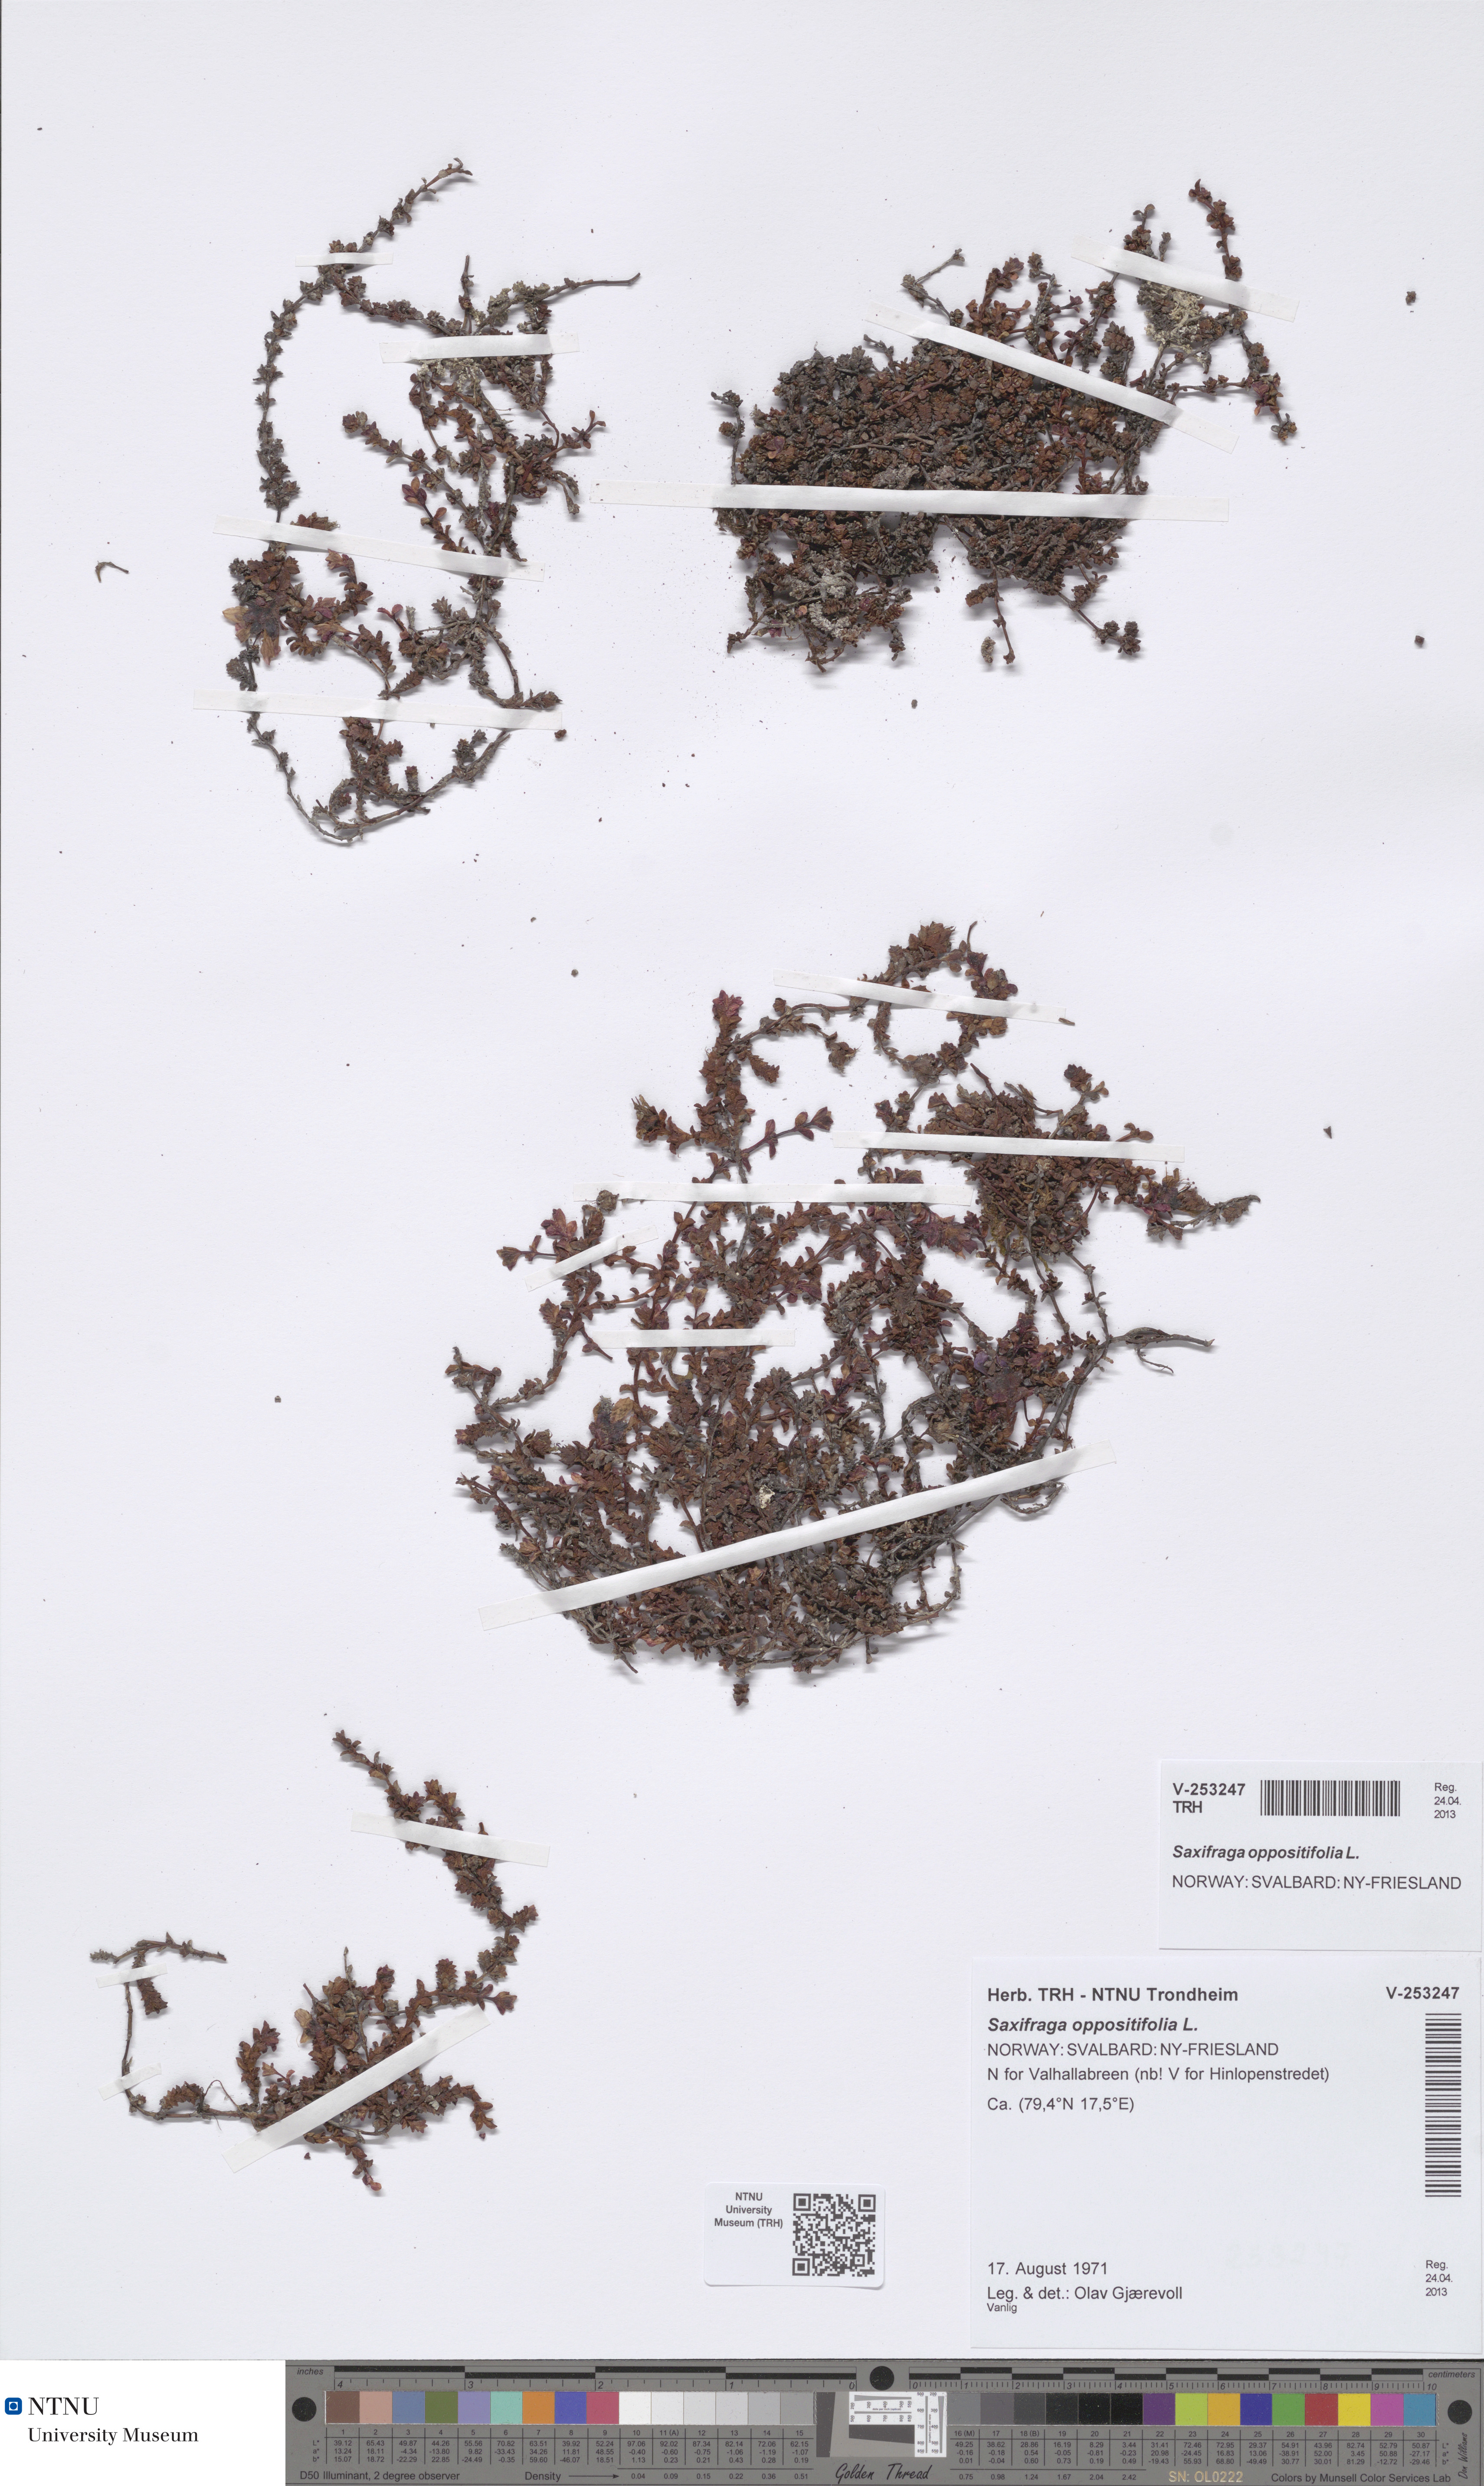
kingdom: Plantae
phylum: Tracheophyta
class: Magnoliopsida
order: Saxifragales
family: Saxifragaceae
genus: Saxifraga
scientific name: Saxifraga oppositifolia
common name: Purple saxifrage
